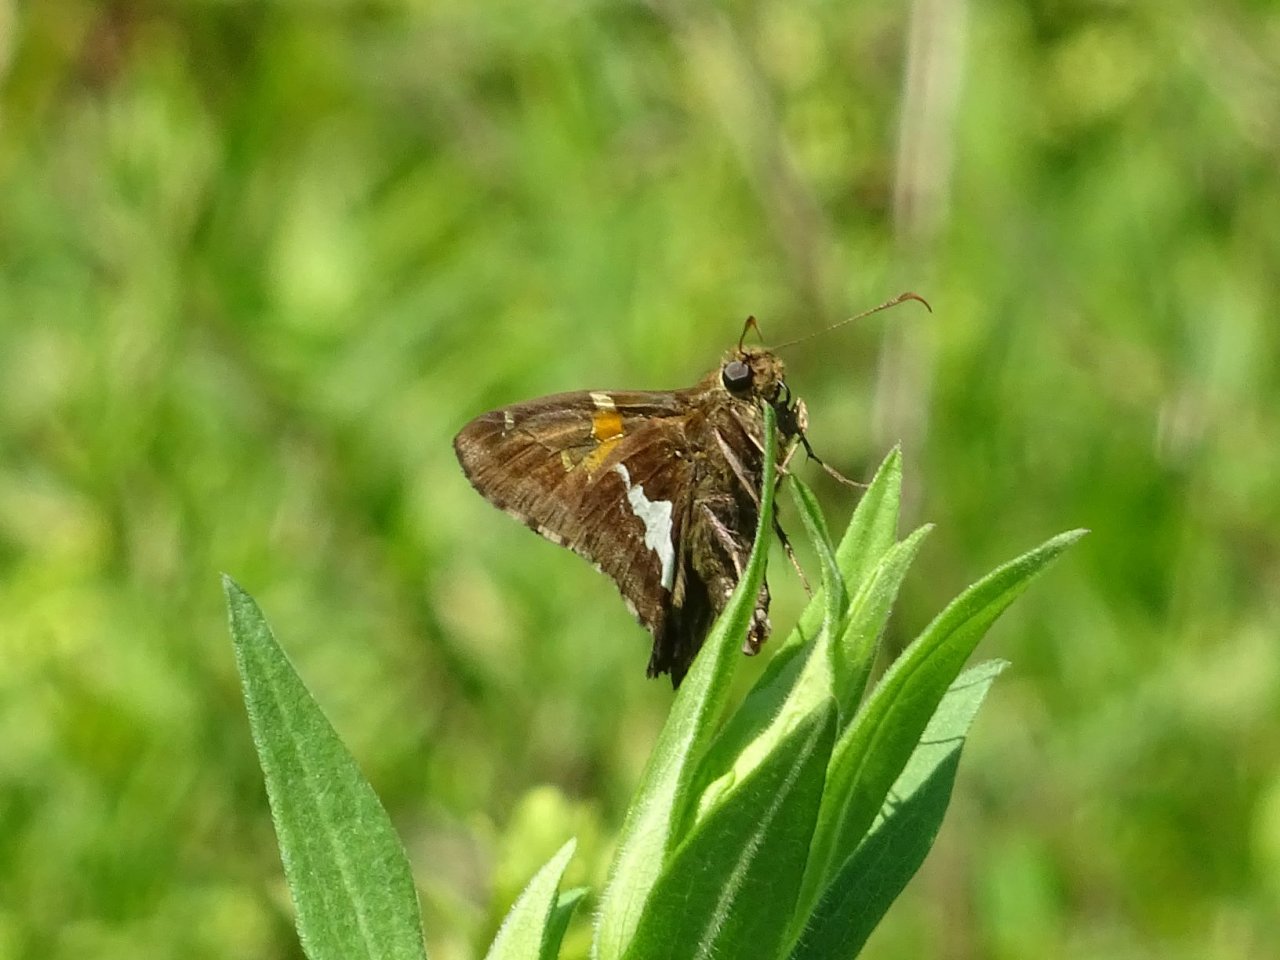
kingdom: Animalia
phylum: Arthropoda
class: Insecta
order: Lepidoptera
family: Hesperiidae
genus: Epargyreus
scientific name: Epargyreus clarus
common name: Silver-spotted Skipper
